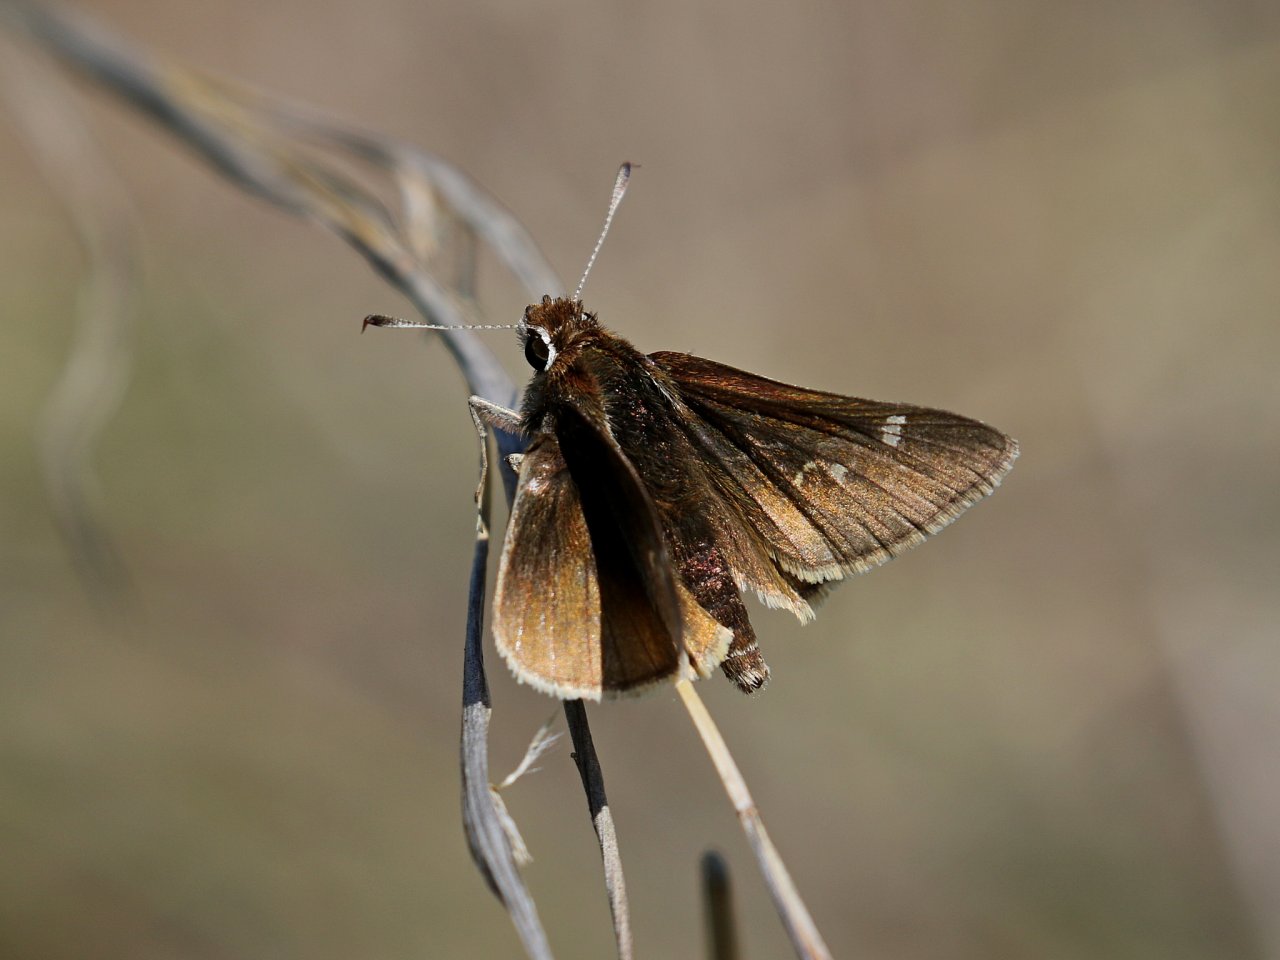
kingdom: Animalia
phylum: Arthropoda
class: Insecta
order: Lepidoptera
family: Hesperiidae
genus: Atrytonopsis
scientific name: Atrytonopsis hianna
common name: Dusted Skipper
